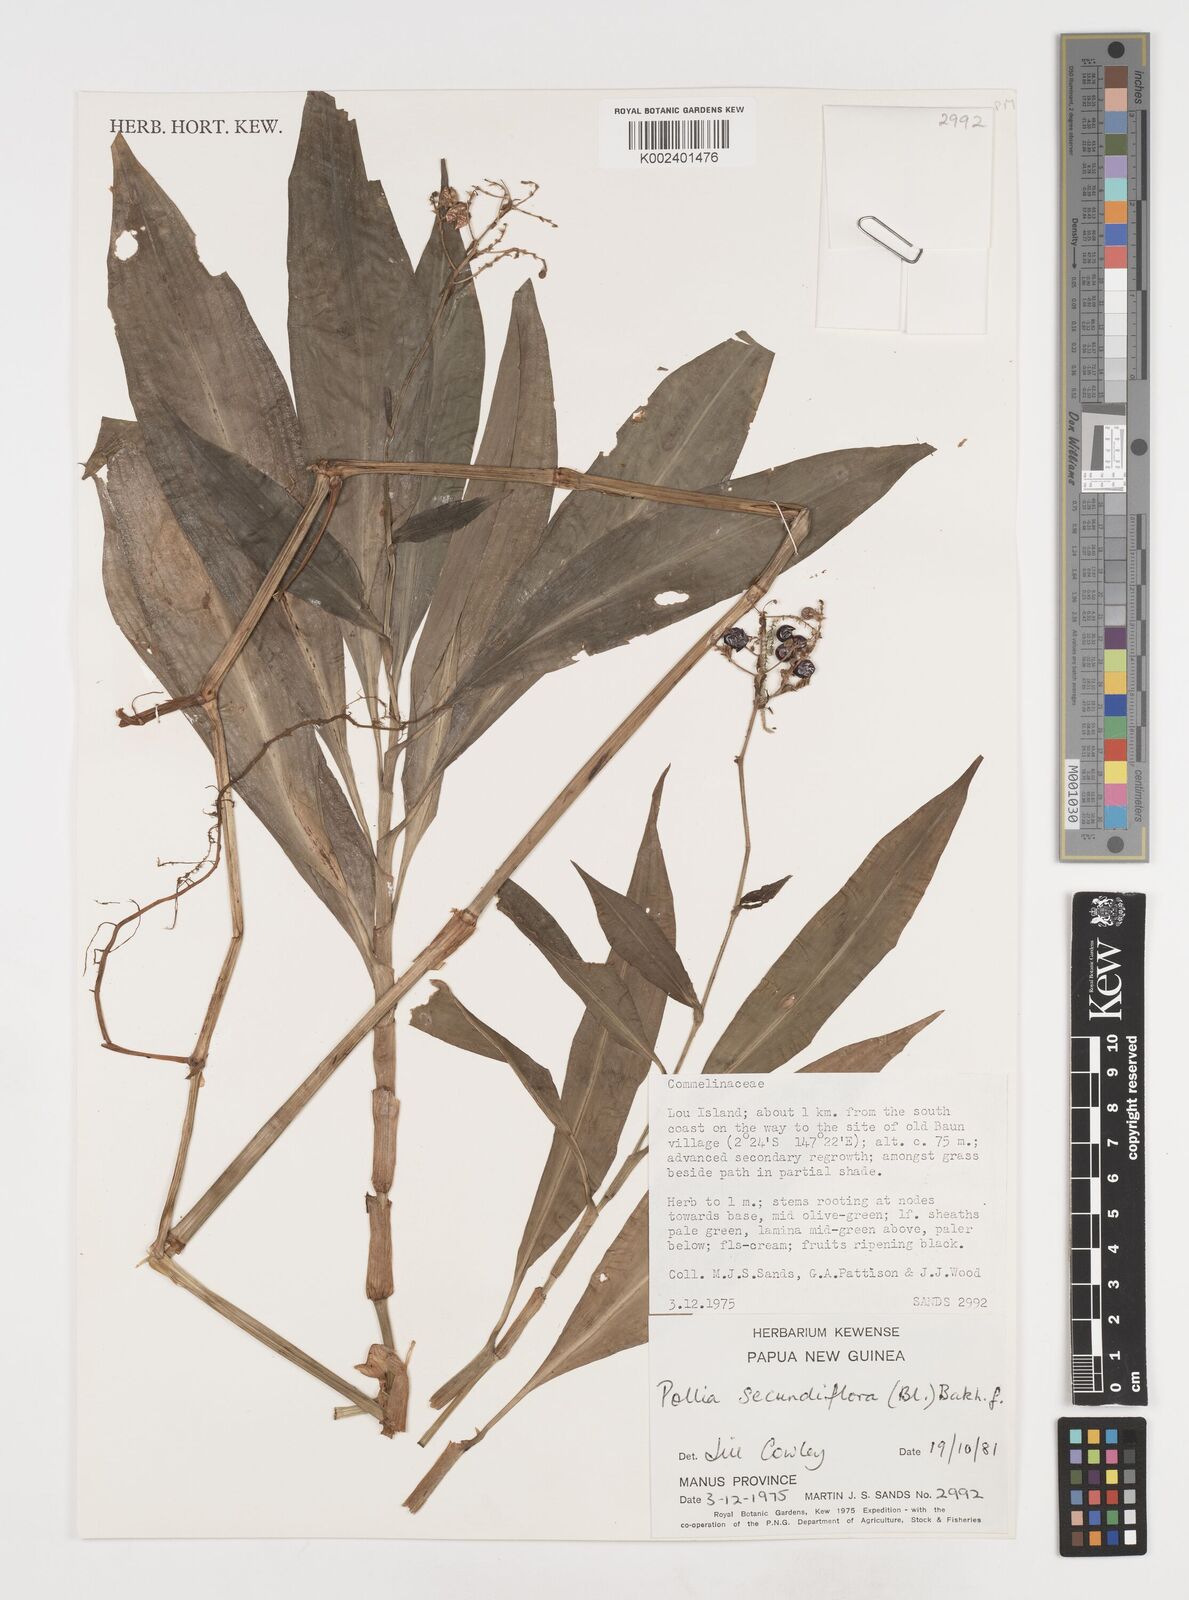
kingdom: Plantae
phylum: Tracheophyta
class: Liliopsida
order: Commelinales
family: Commelinaceae
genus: Pollia
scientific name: Pollia secundiflora
